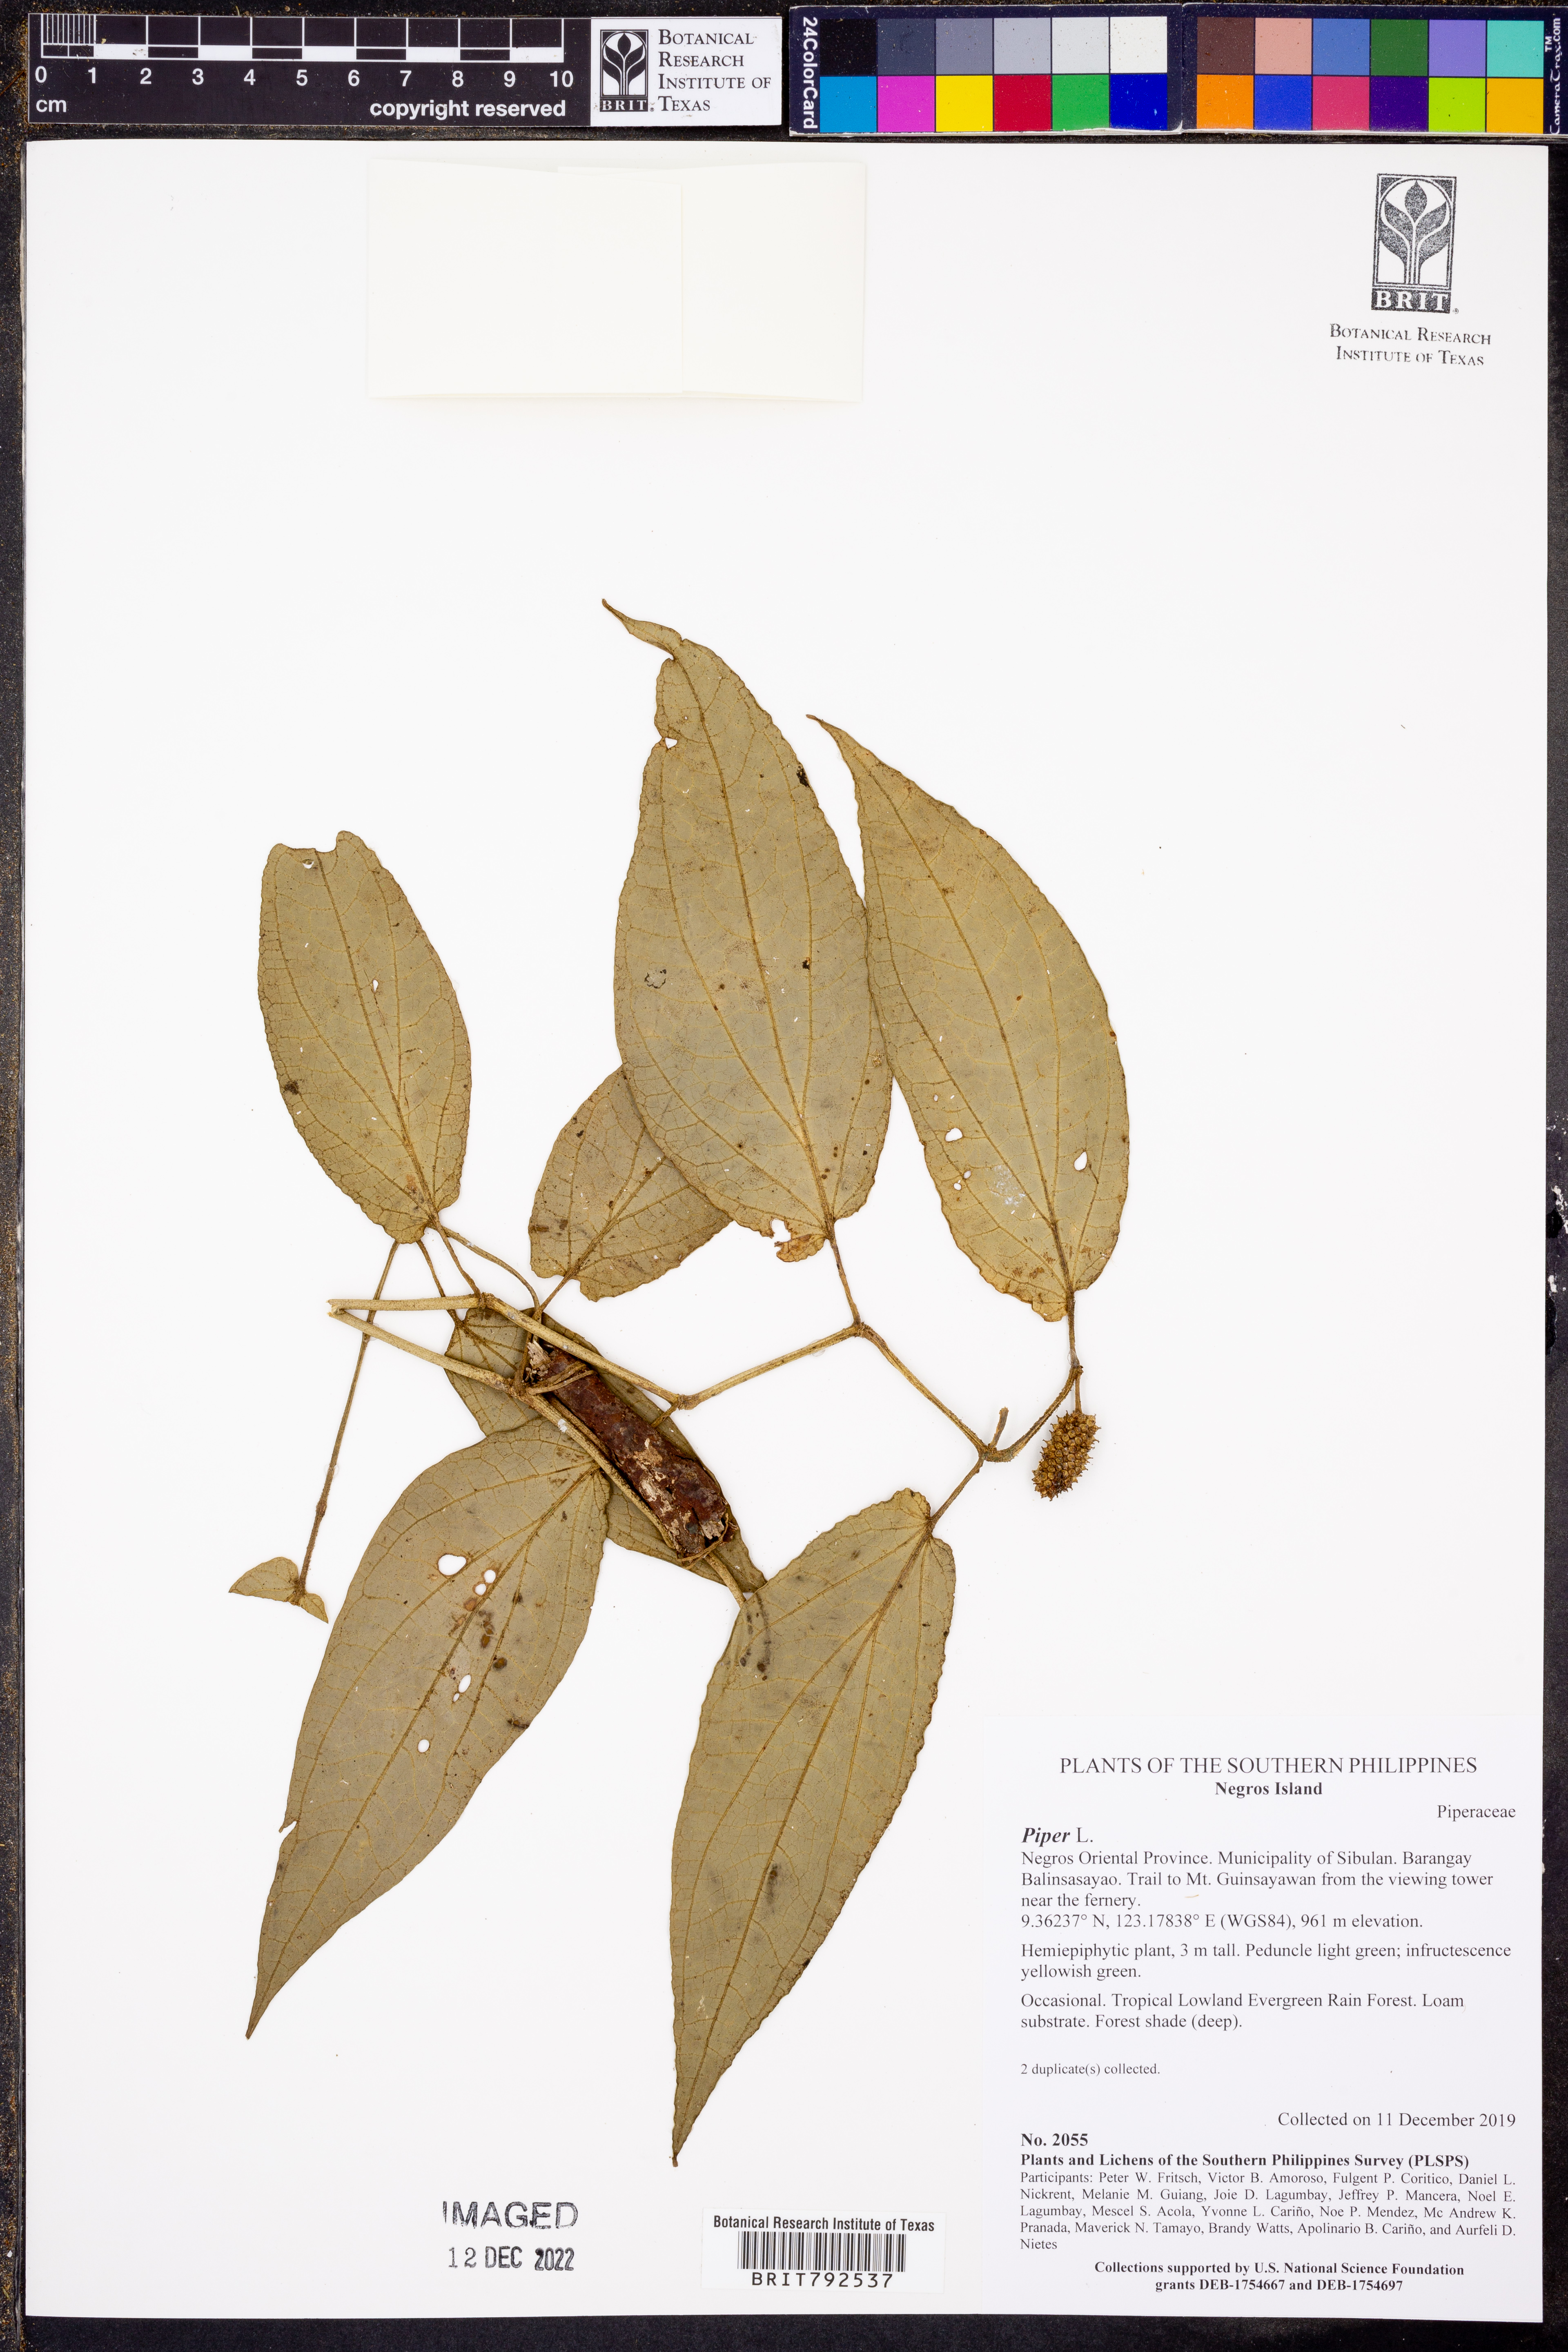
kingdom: Plantae
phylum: Tracheophyta
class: Magnoliopsida
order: Piperales
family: Piperaceae
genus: Piper
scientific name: Piper
